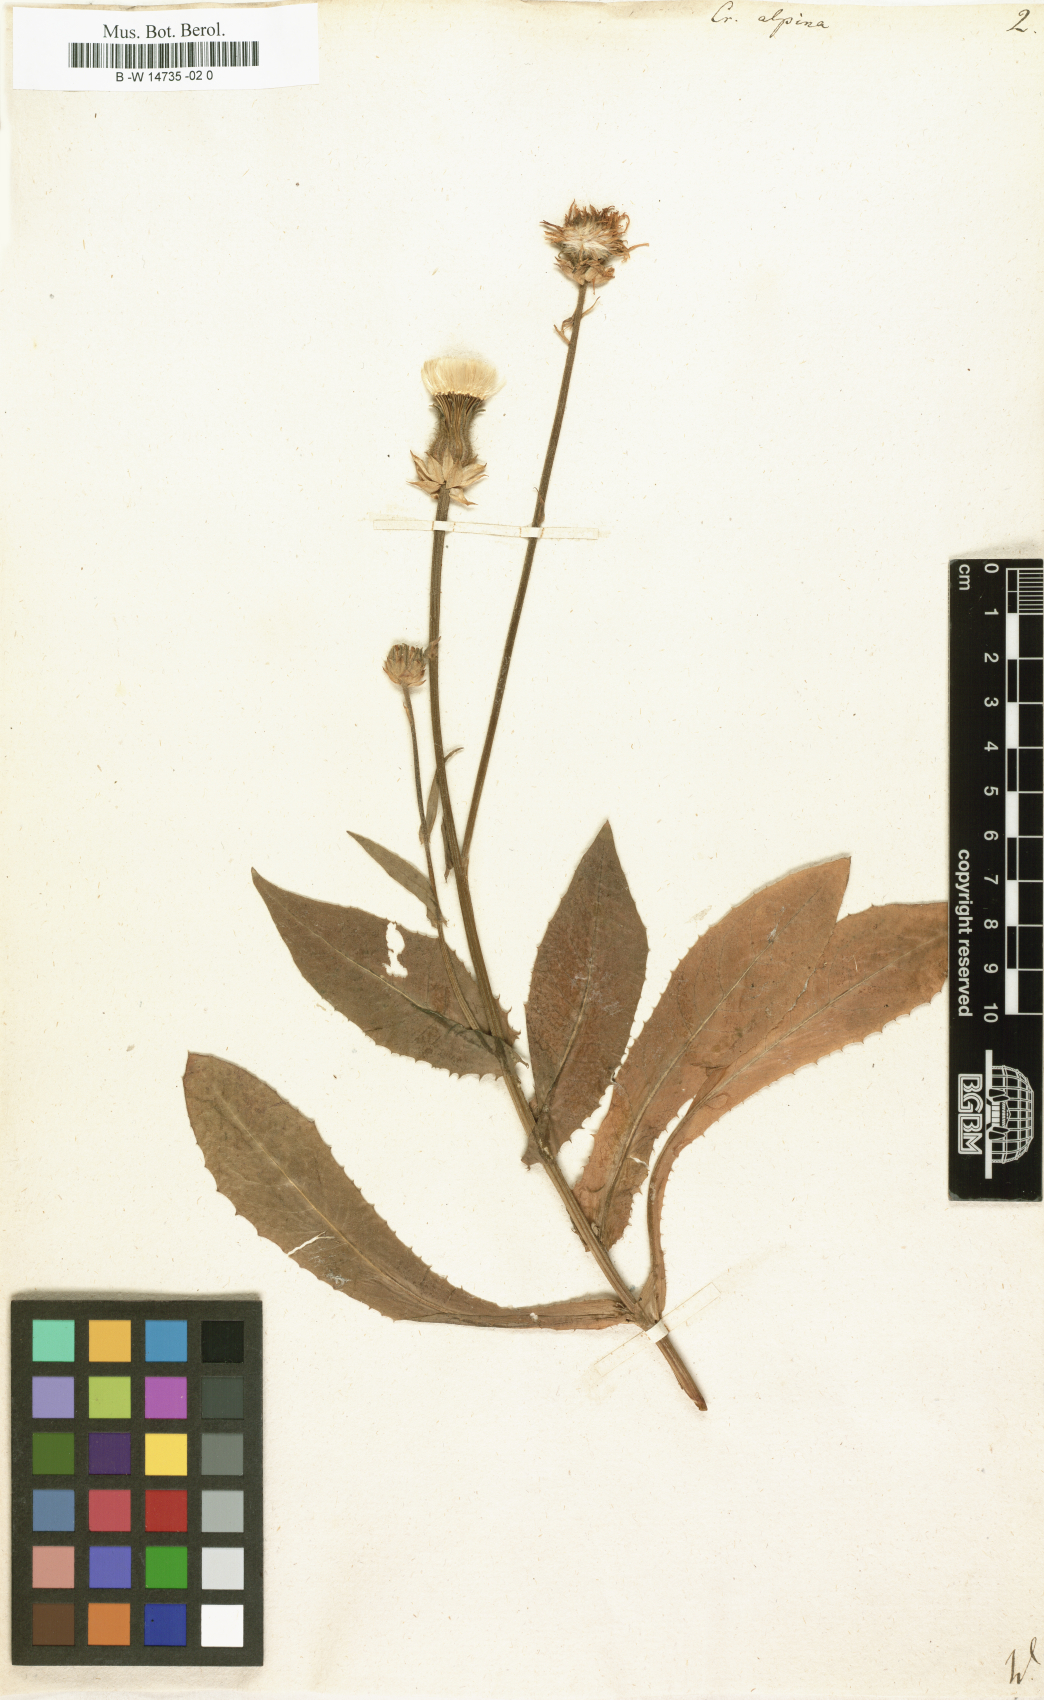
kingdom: Plantae
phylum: Tracheophyta
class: Magnoliopsida
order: Asterales
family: Asteraceae
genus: Crepis
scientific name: Crepis alpina
